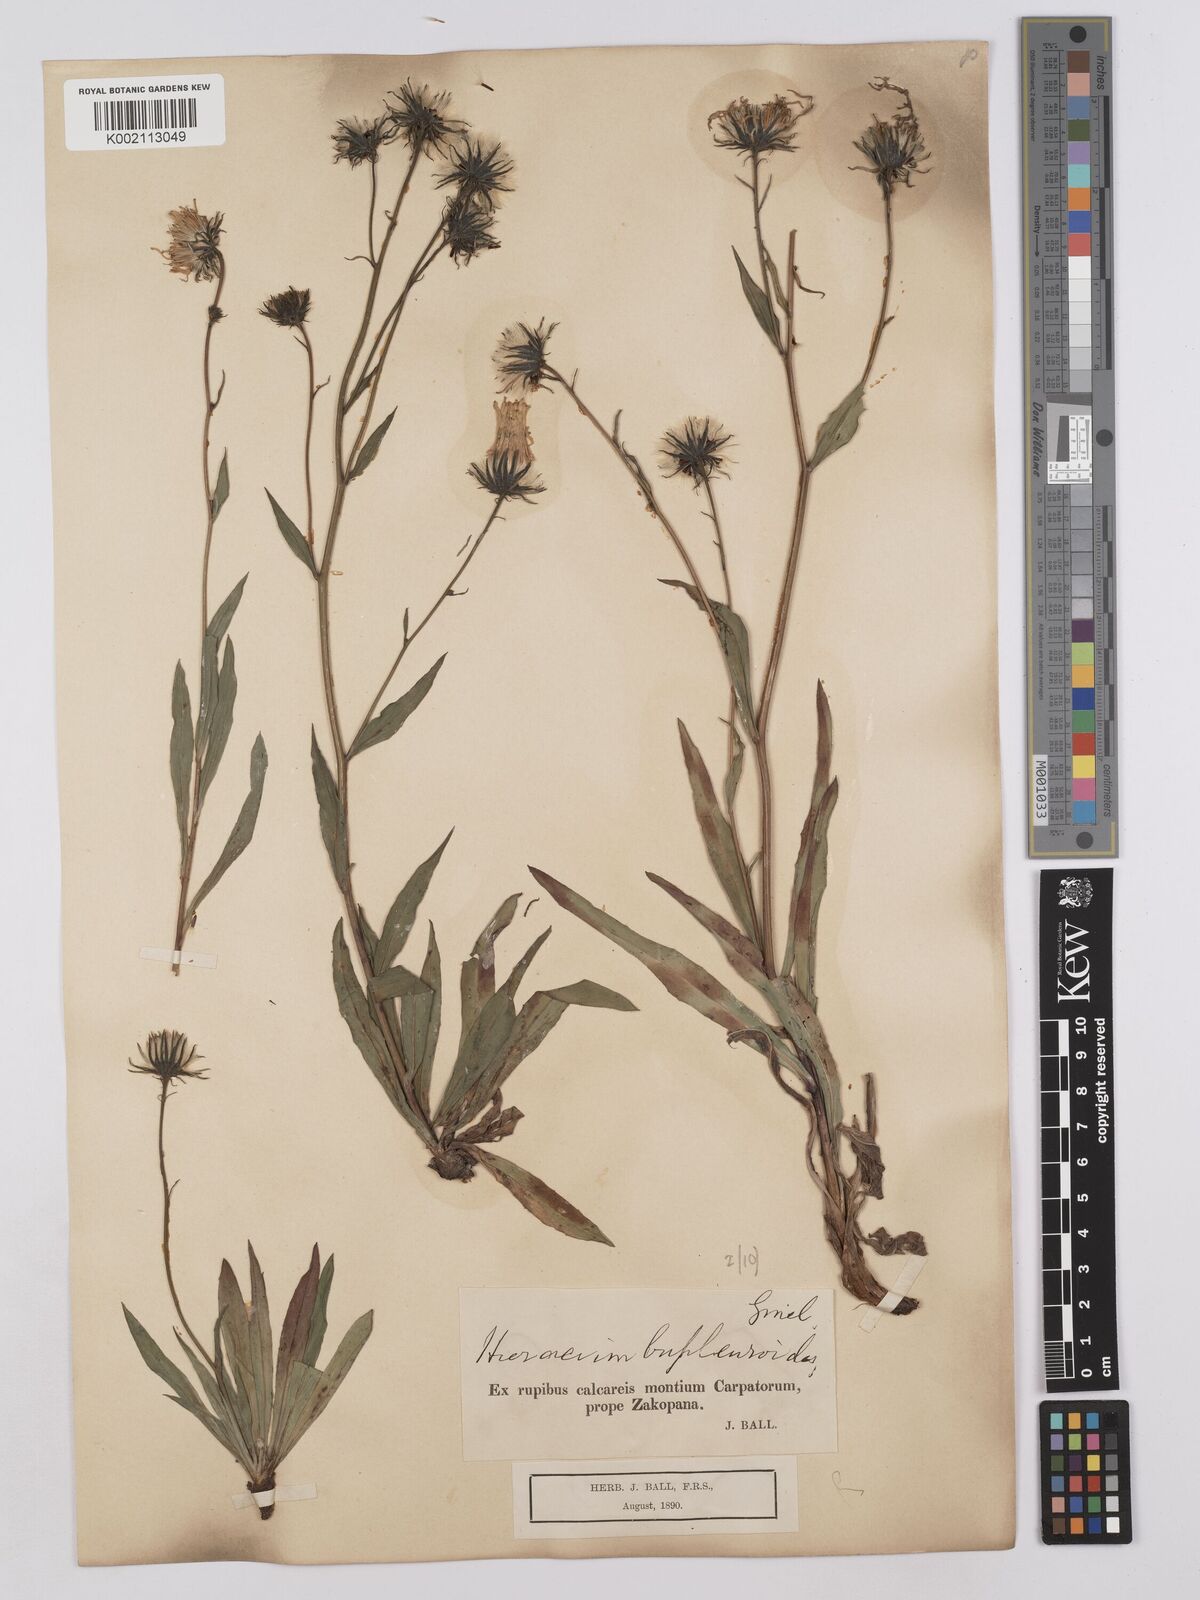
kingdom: Plantae
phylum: Tracheophyta
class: Magnoliopsida
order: Asterales
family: Asteraceae
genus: Hieracium
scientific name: Hieracium bupleuroides
